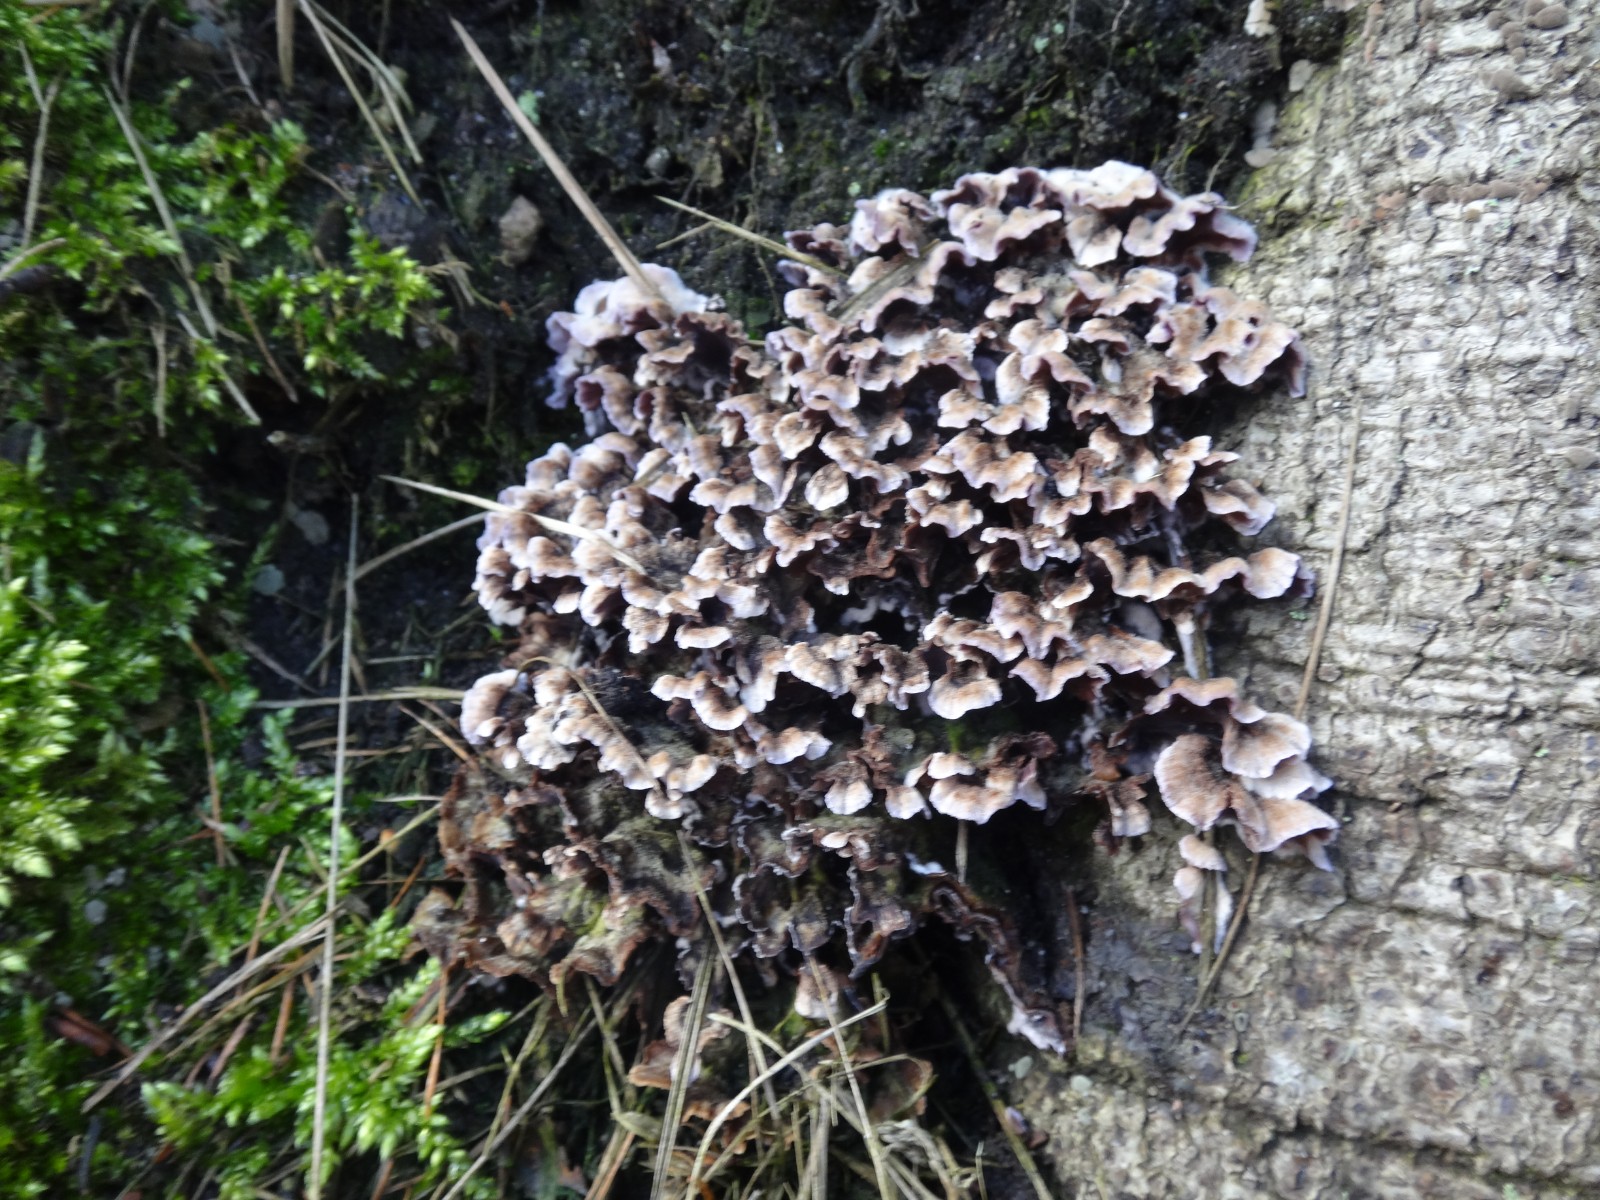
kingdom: Fungi
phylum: Basidiomycota
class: Agaricomycetes
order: Agaricales
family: Cyphellaceae
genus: Chondrostereum
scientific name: Chondrostereum purpureum
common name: purpurlædersvamp
